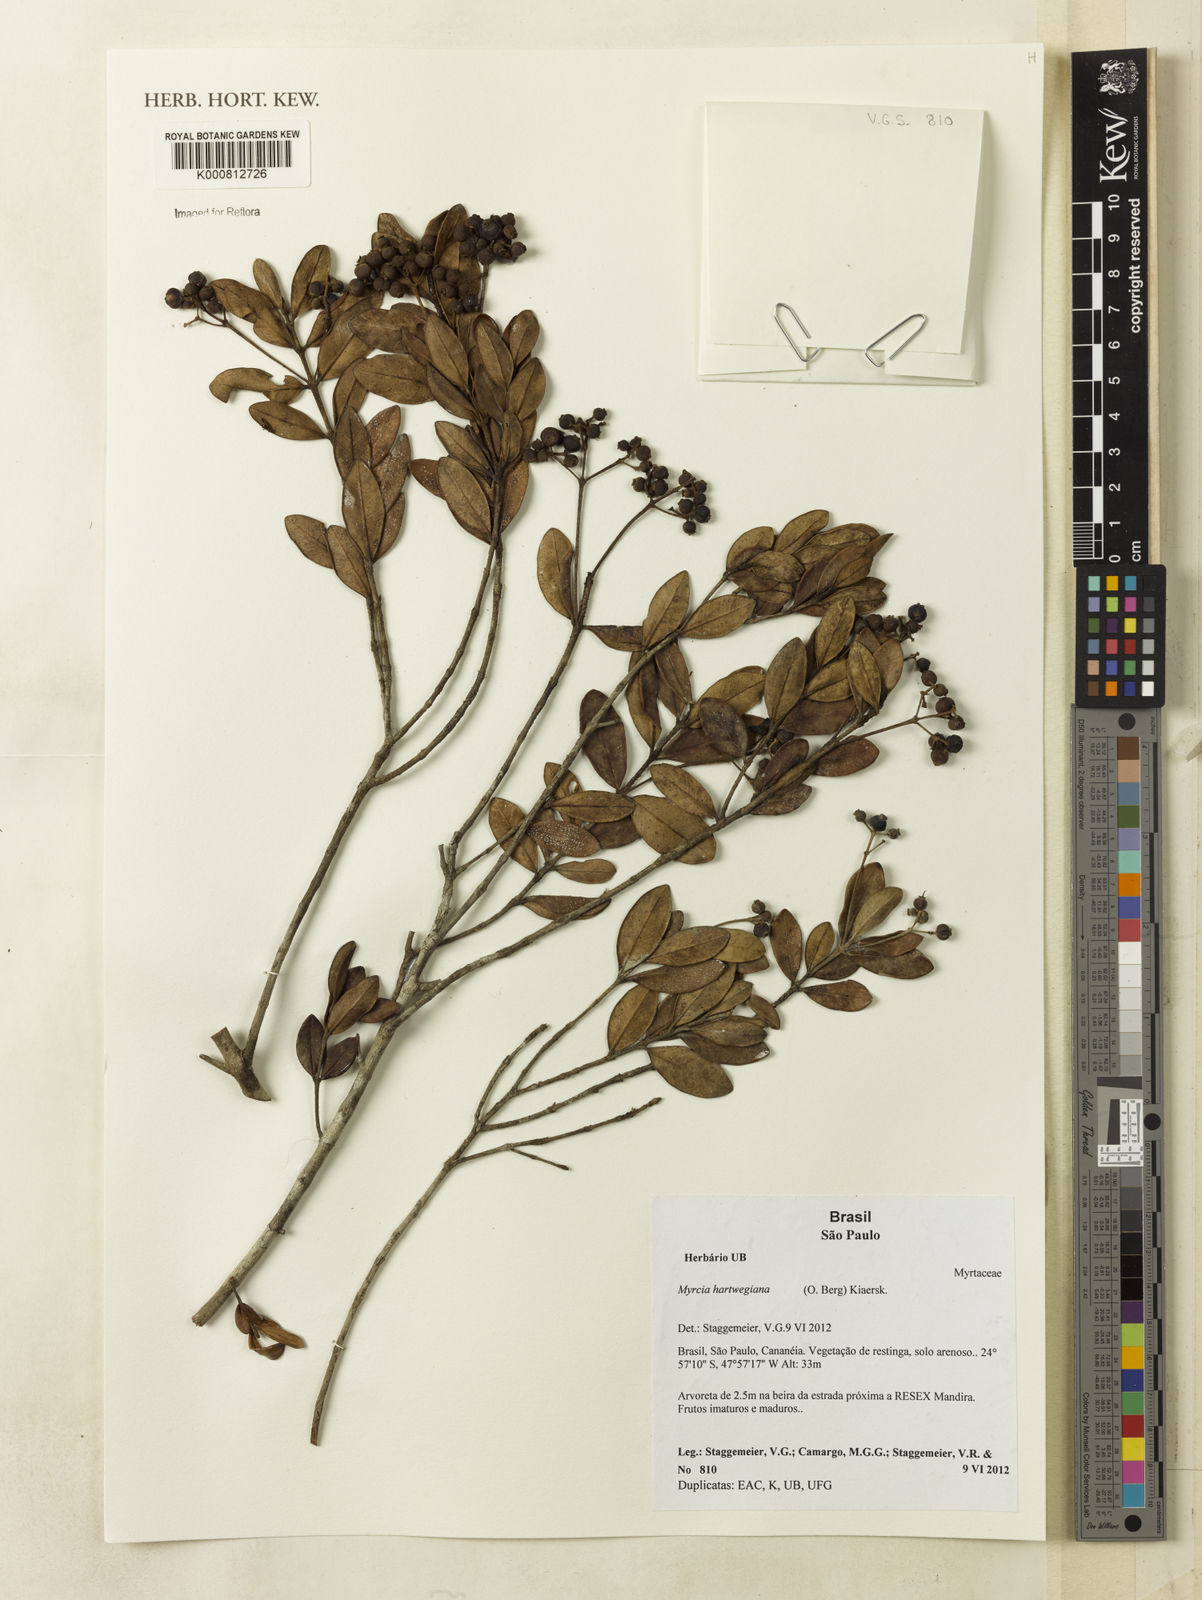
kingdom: Plantae
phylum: Tracheophyta
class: Magnoliopsida
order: Myrtales
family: Myrtaceae
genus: Myrcia
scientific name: Myrcia hartwegiana
